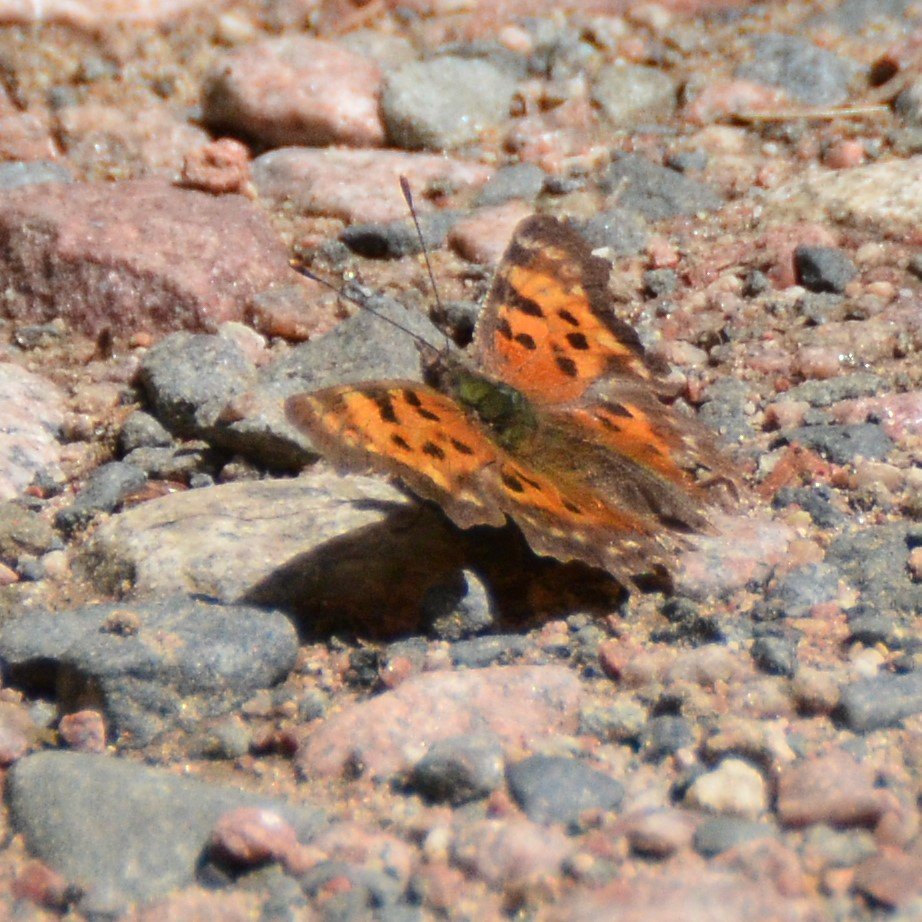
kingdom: Animalia
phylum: Arthropoda
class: Insecta
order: Lepidoptera
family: Nymphalidae
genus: Polygonia
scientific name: Polygonia faunus
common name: Green Comma
